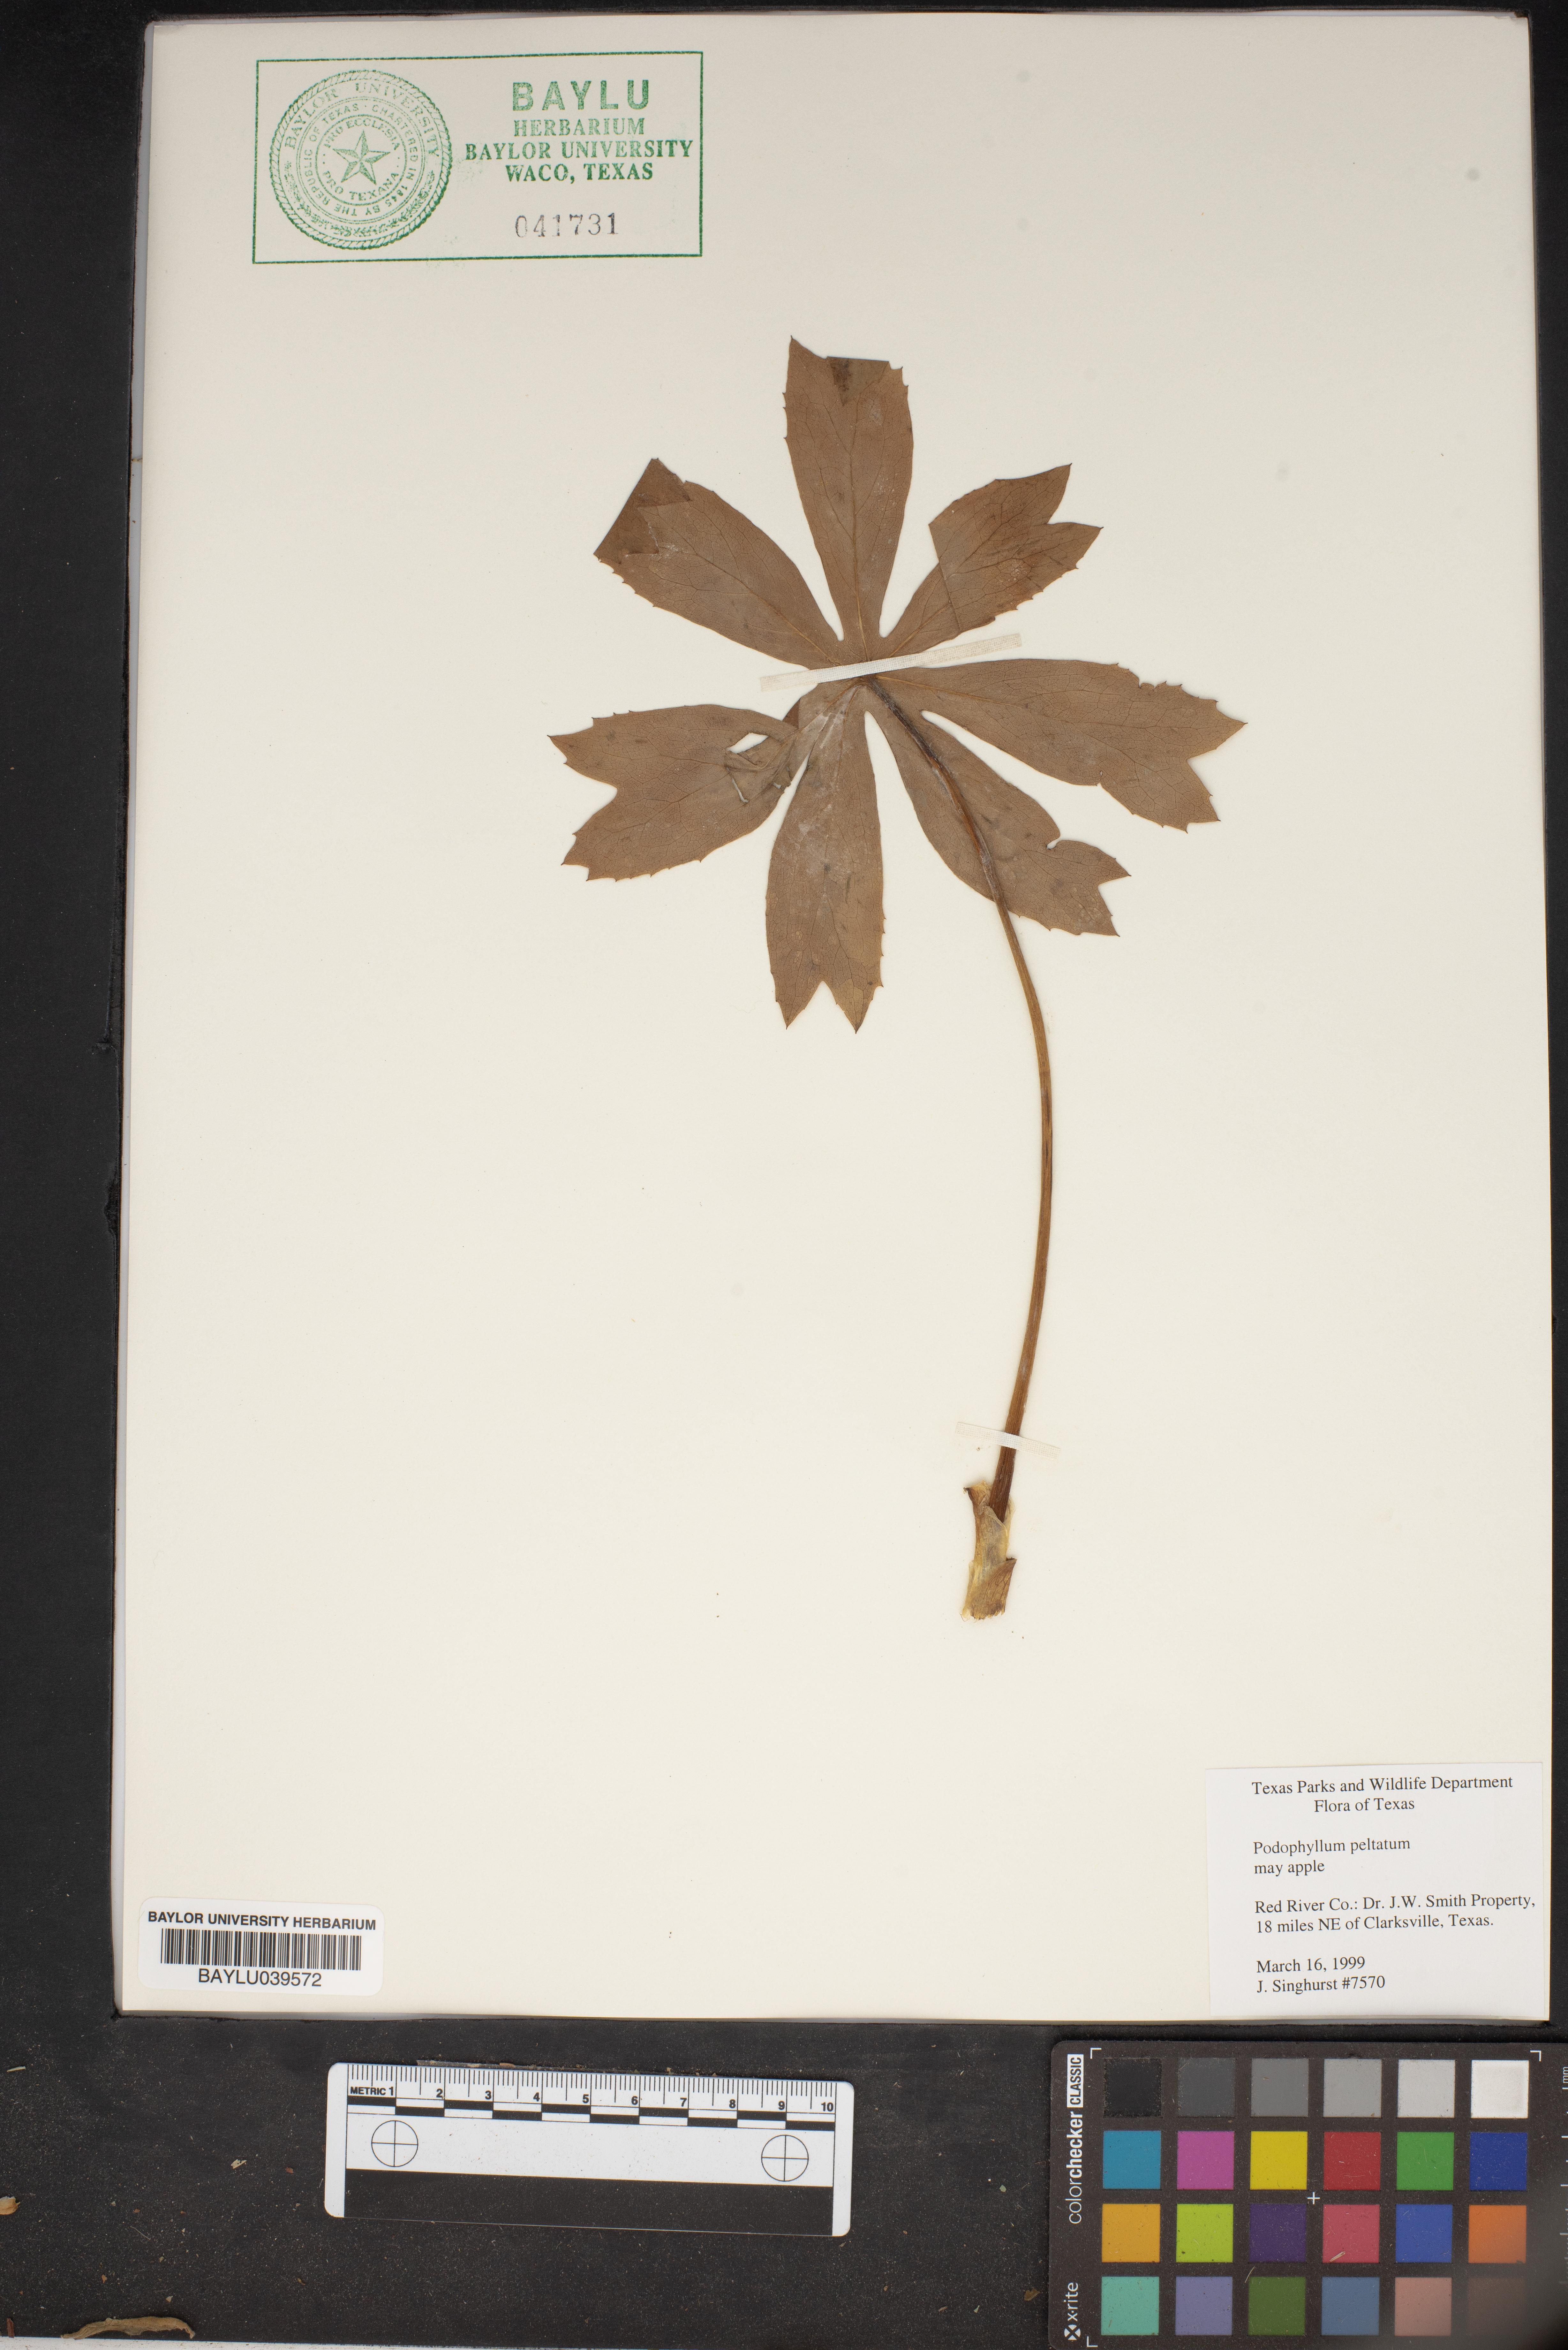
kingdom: Plantae
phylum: Tracheophyta
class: Magnoliopsida
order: Ranunculales
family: Berberidaceae
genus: Podophyllum
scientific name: Podophyllum peltatum
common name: Wild mandrake
